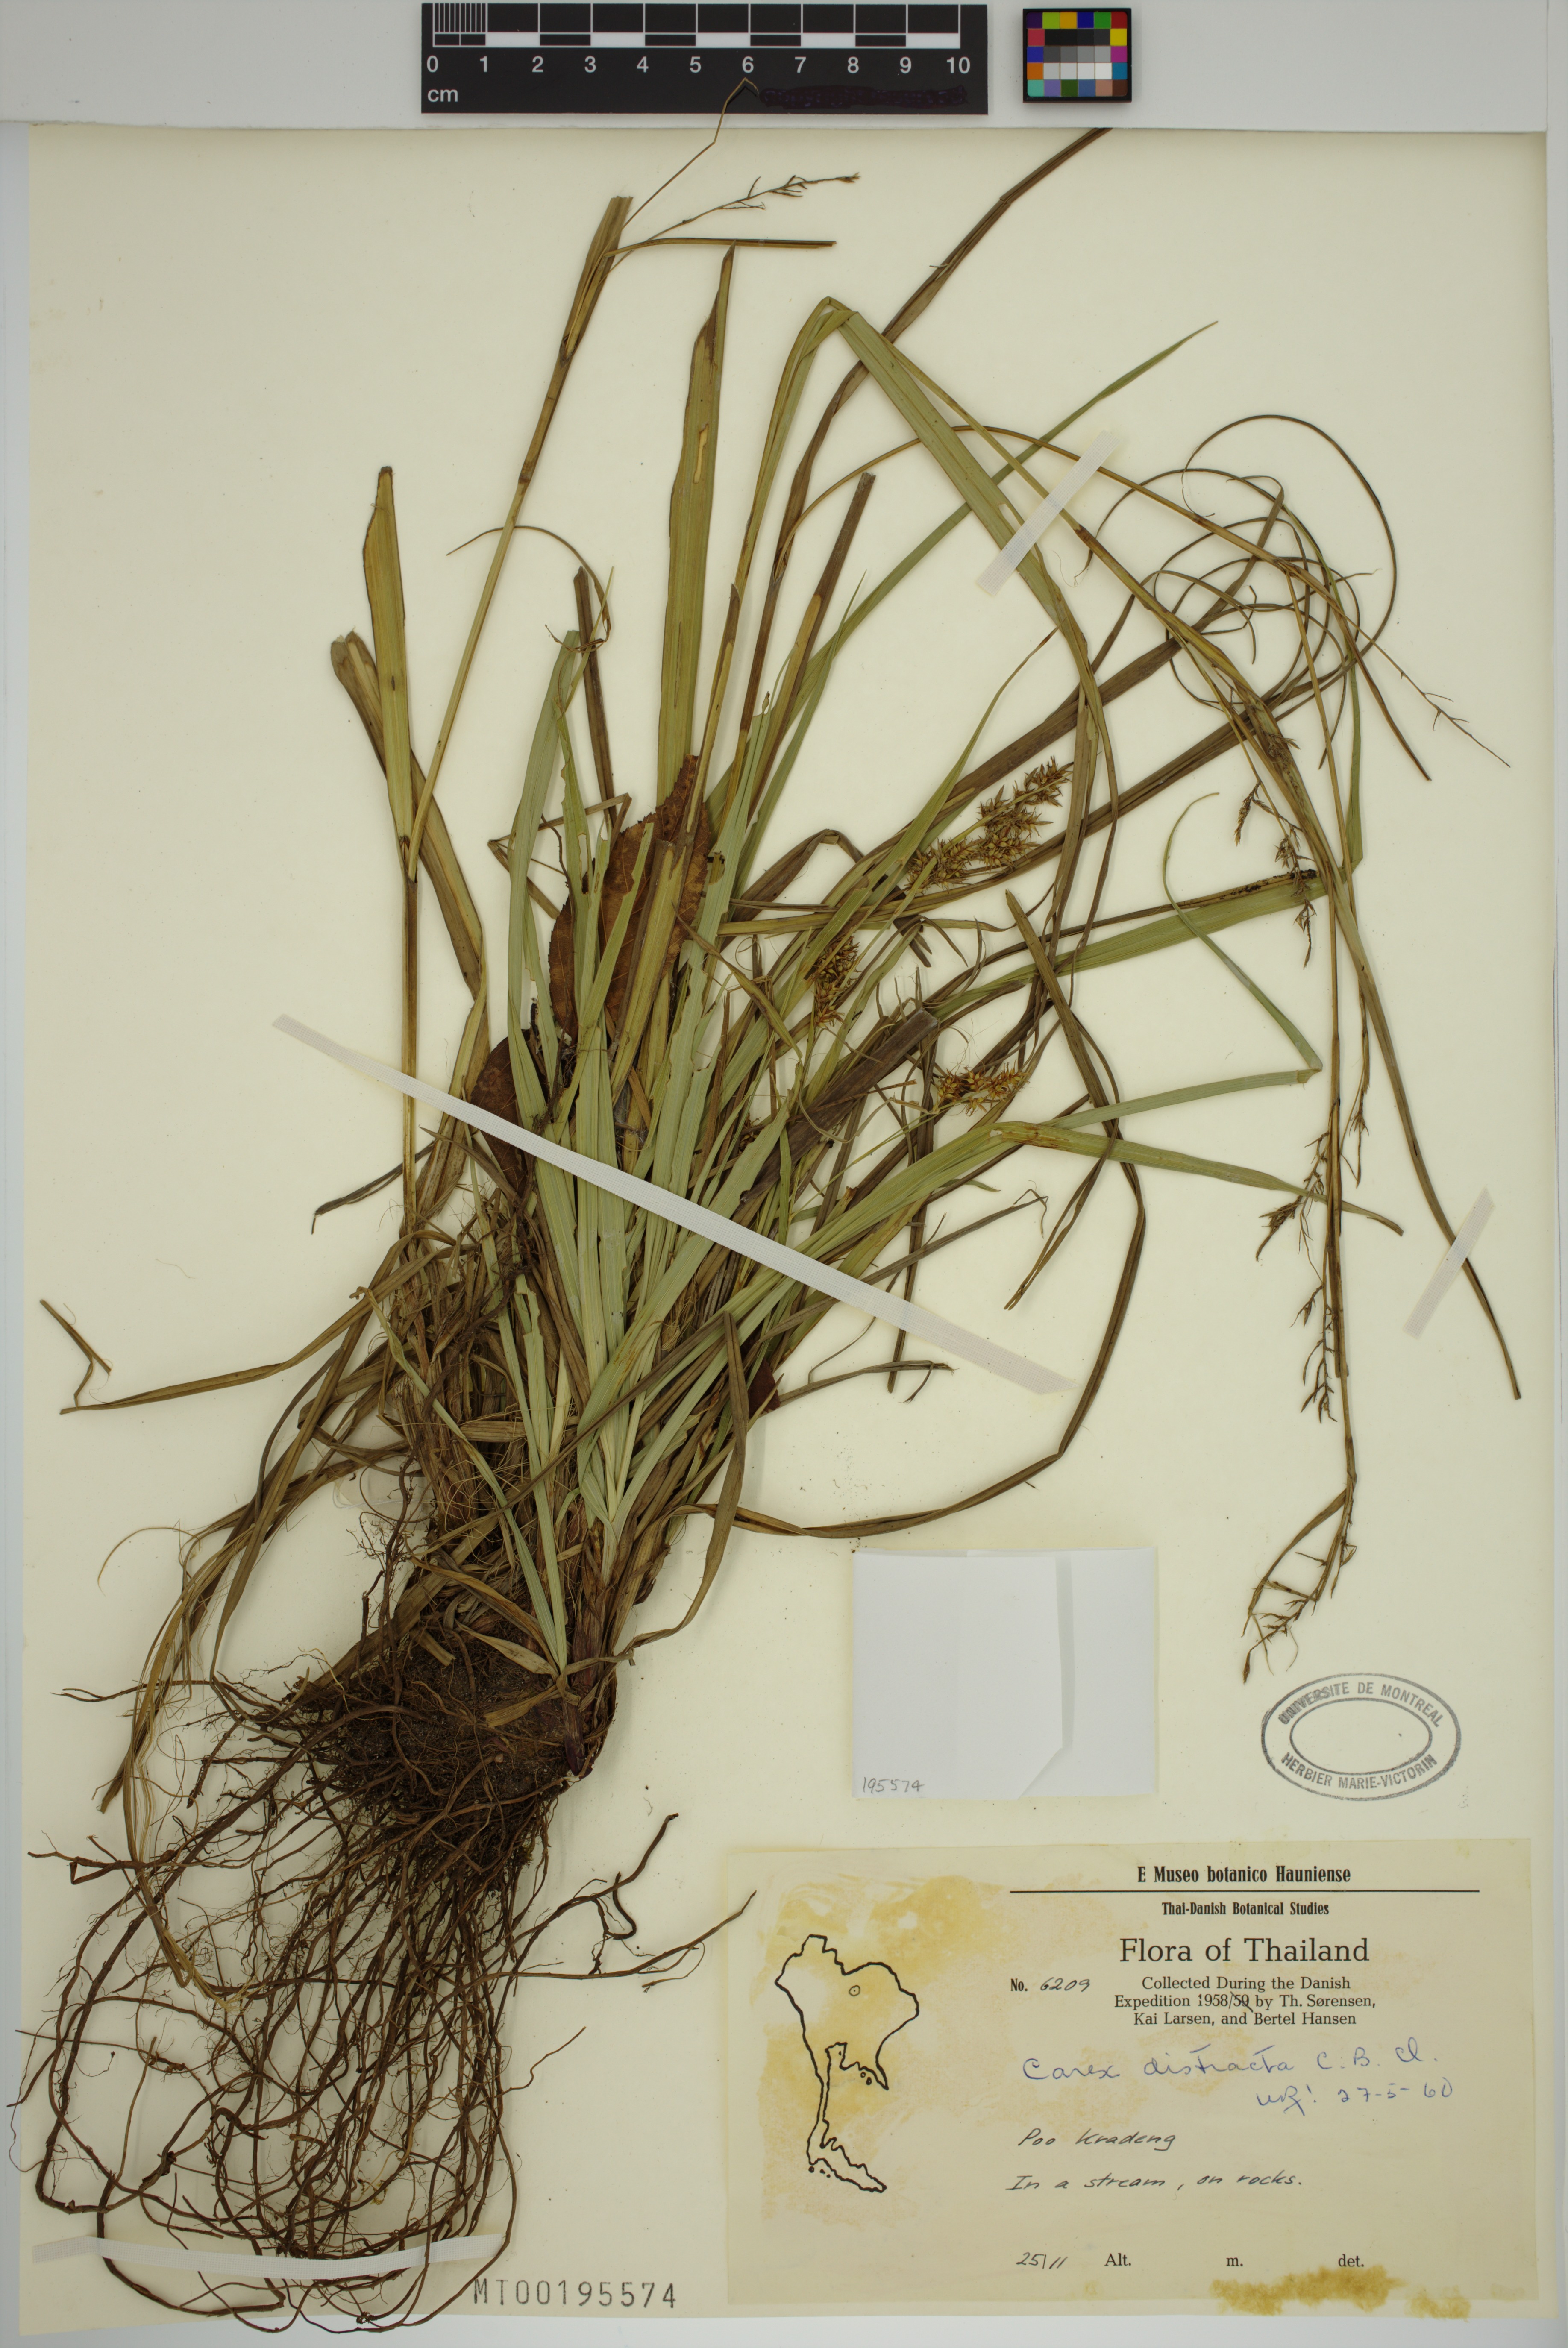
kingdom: Plantae
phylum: Tracheophyta
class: Liliopsida
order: Poales
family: Cyperaceae
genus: Carex
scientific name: Carex distracta
